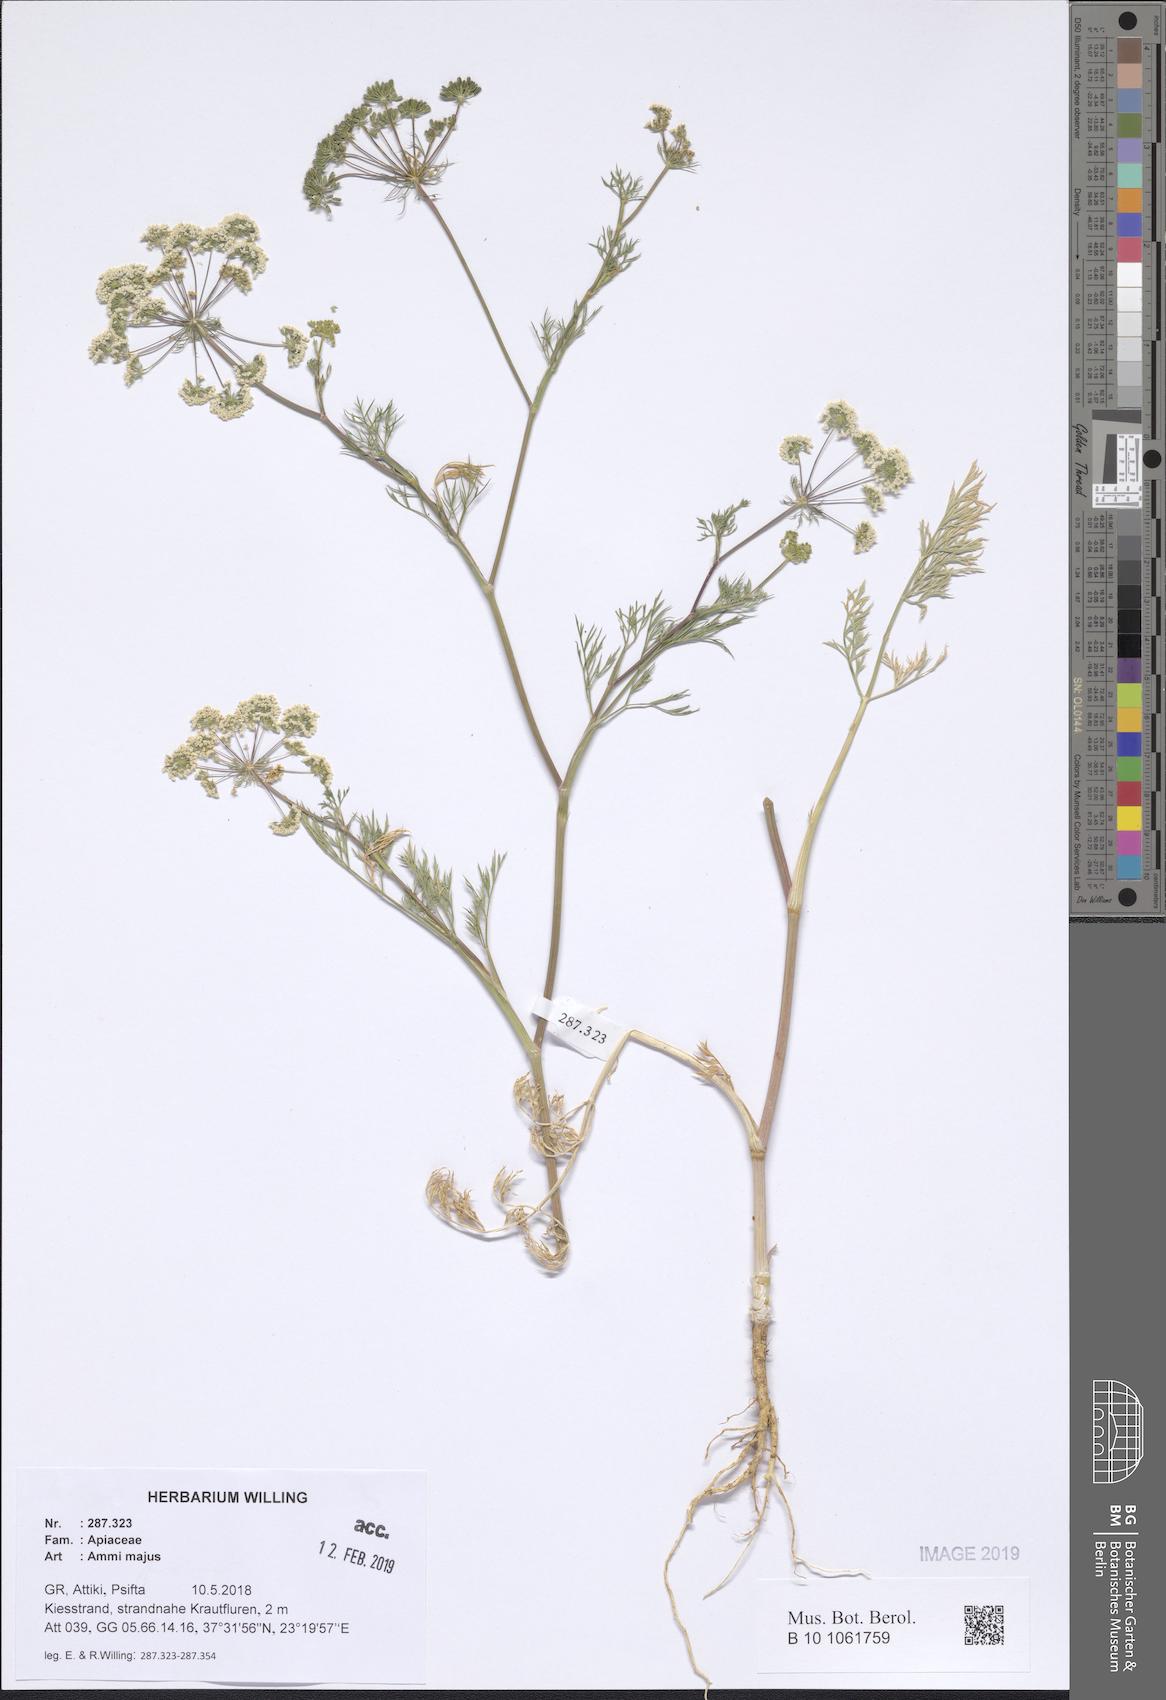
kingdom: Plantae
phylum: Tracheophyta
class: Magnoliopsida
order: Apiales
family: Apiaceae
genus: Ammi
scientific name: Ammi majus
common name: Bullwort
